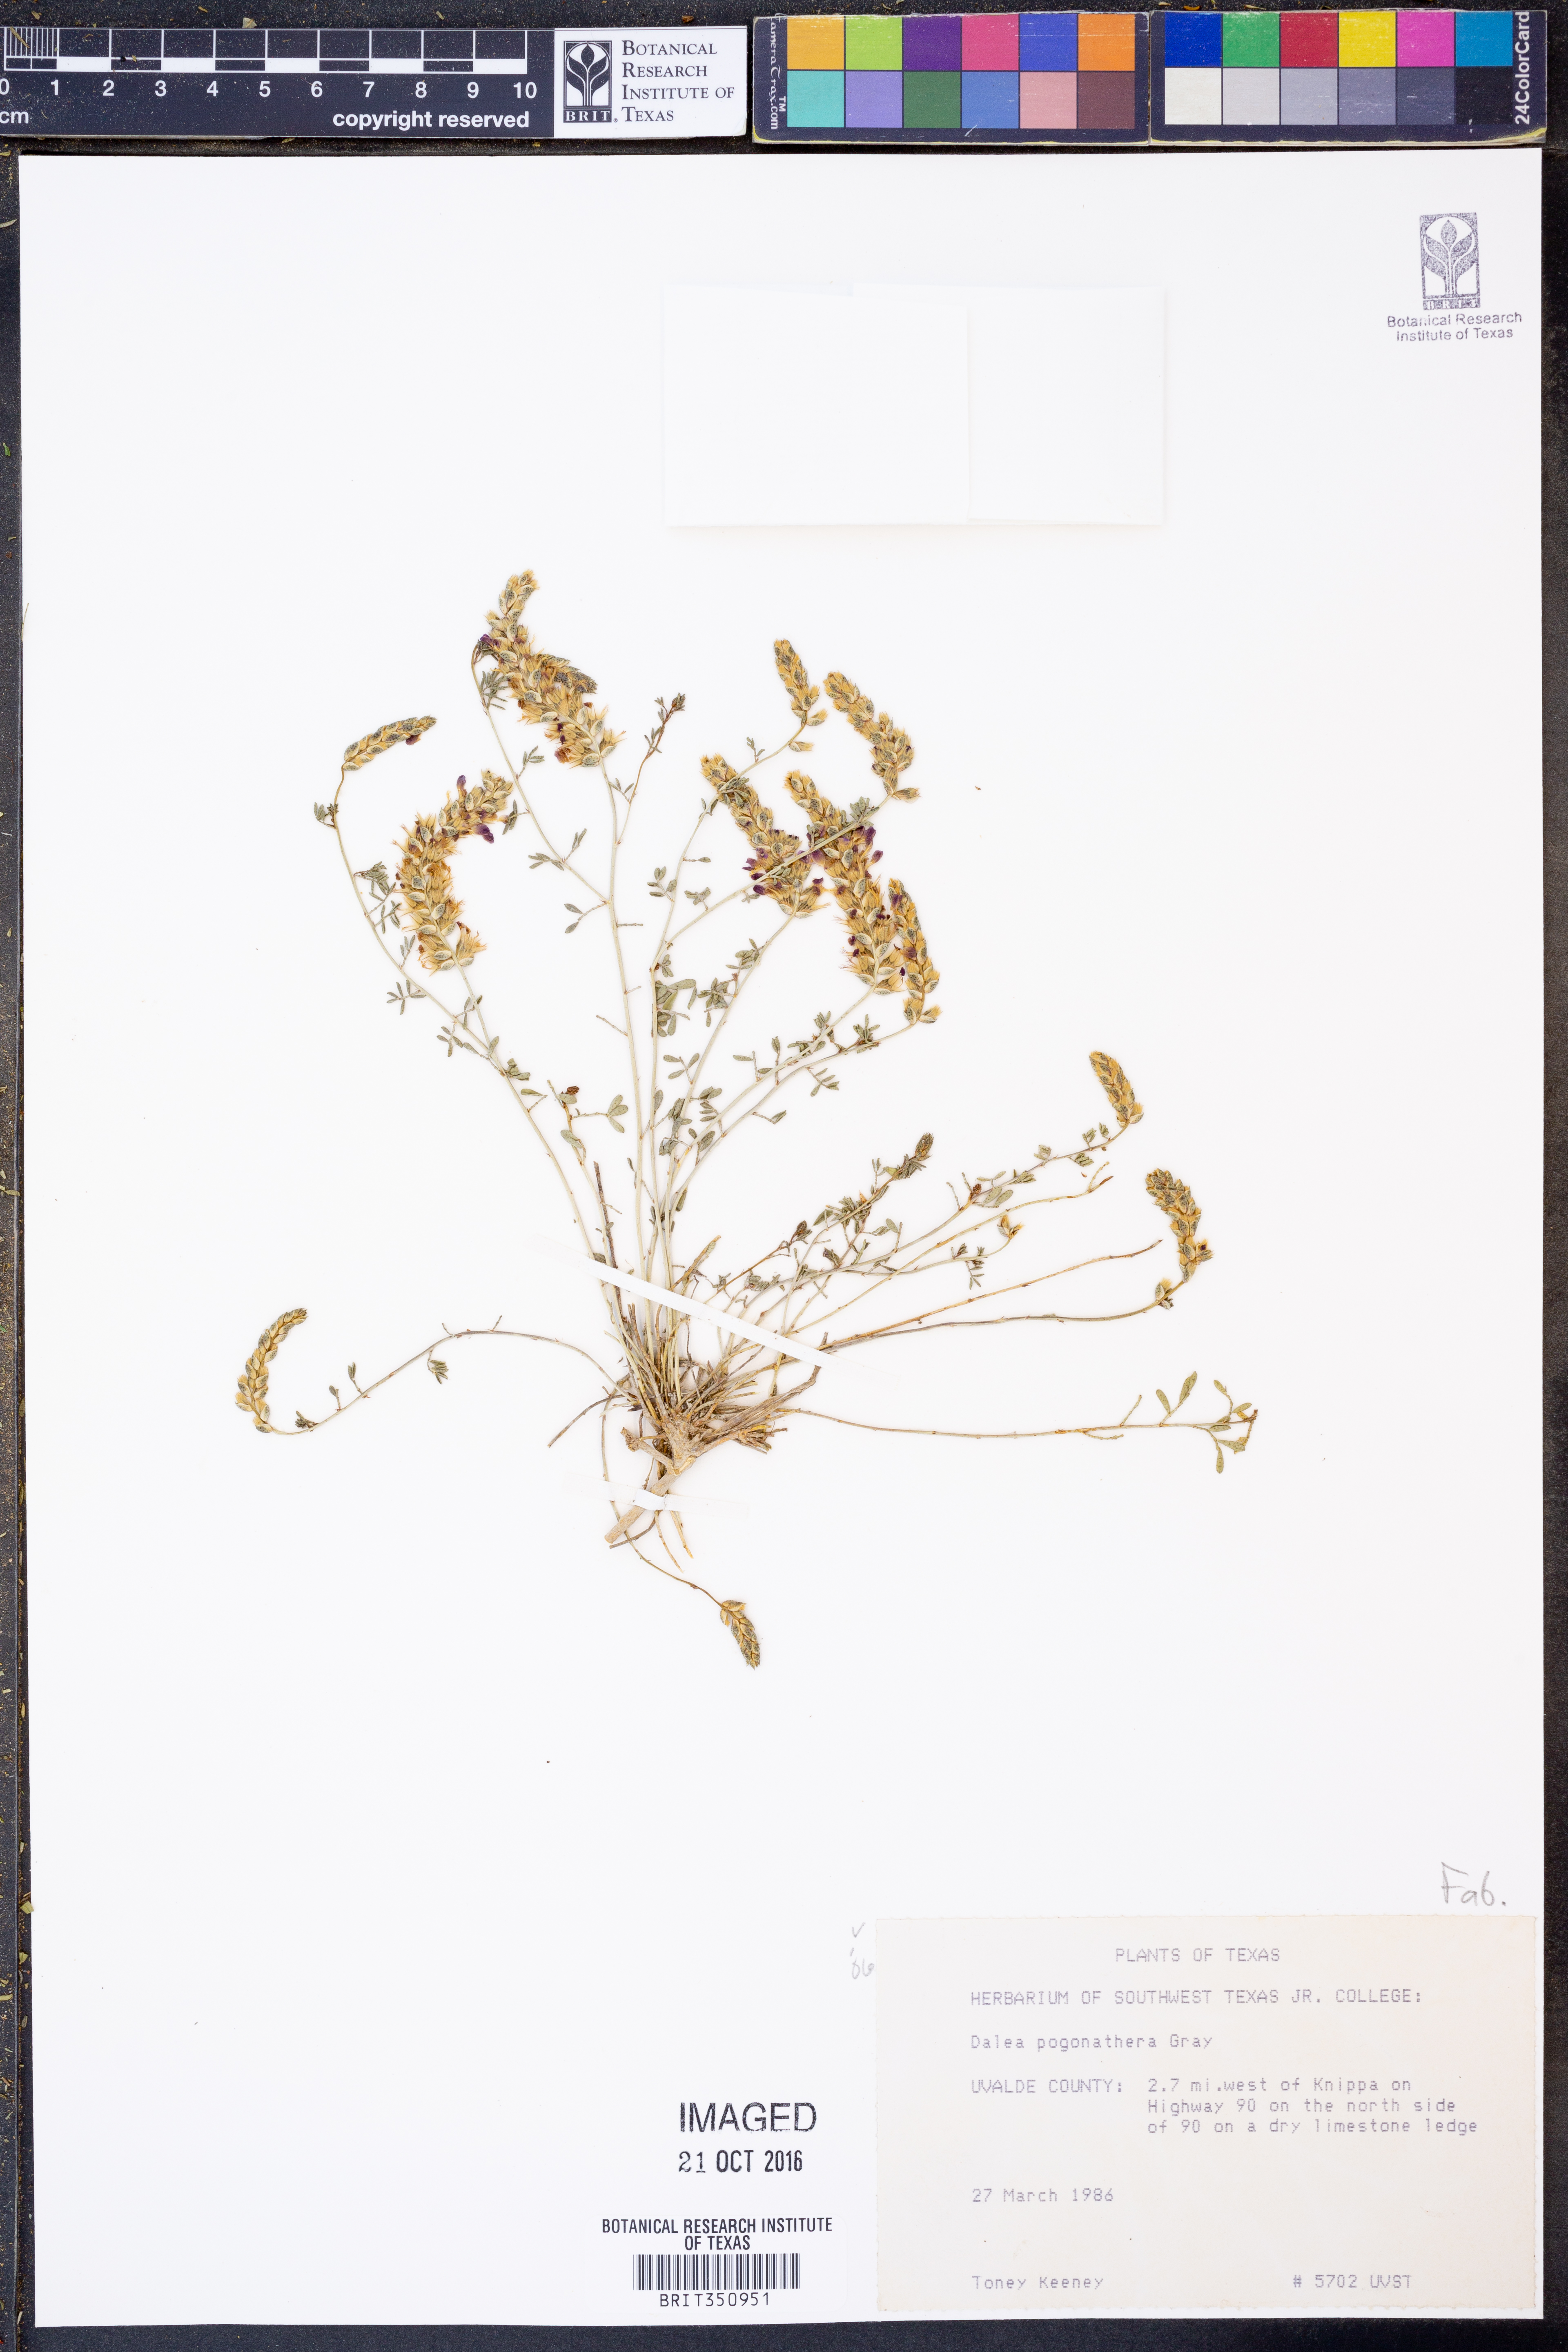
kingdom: Plantae
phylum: Tracheophyta
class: Magnoliopsida
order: Fabales
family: Fabaceae
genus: Dalea
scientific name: Dalea pogonathera
